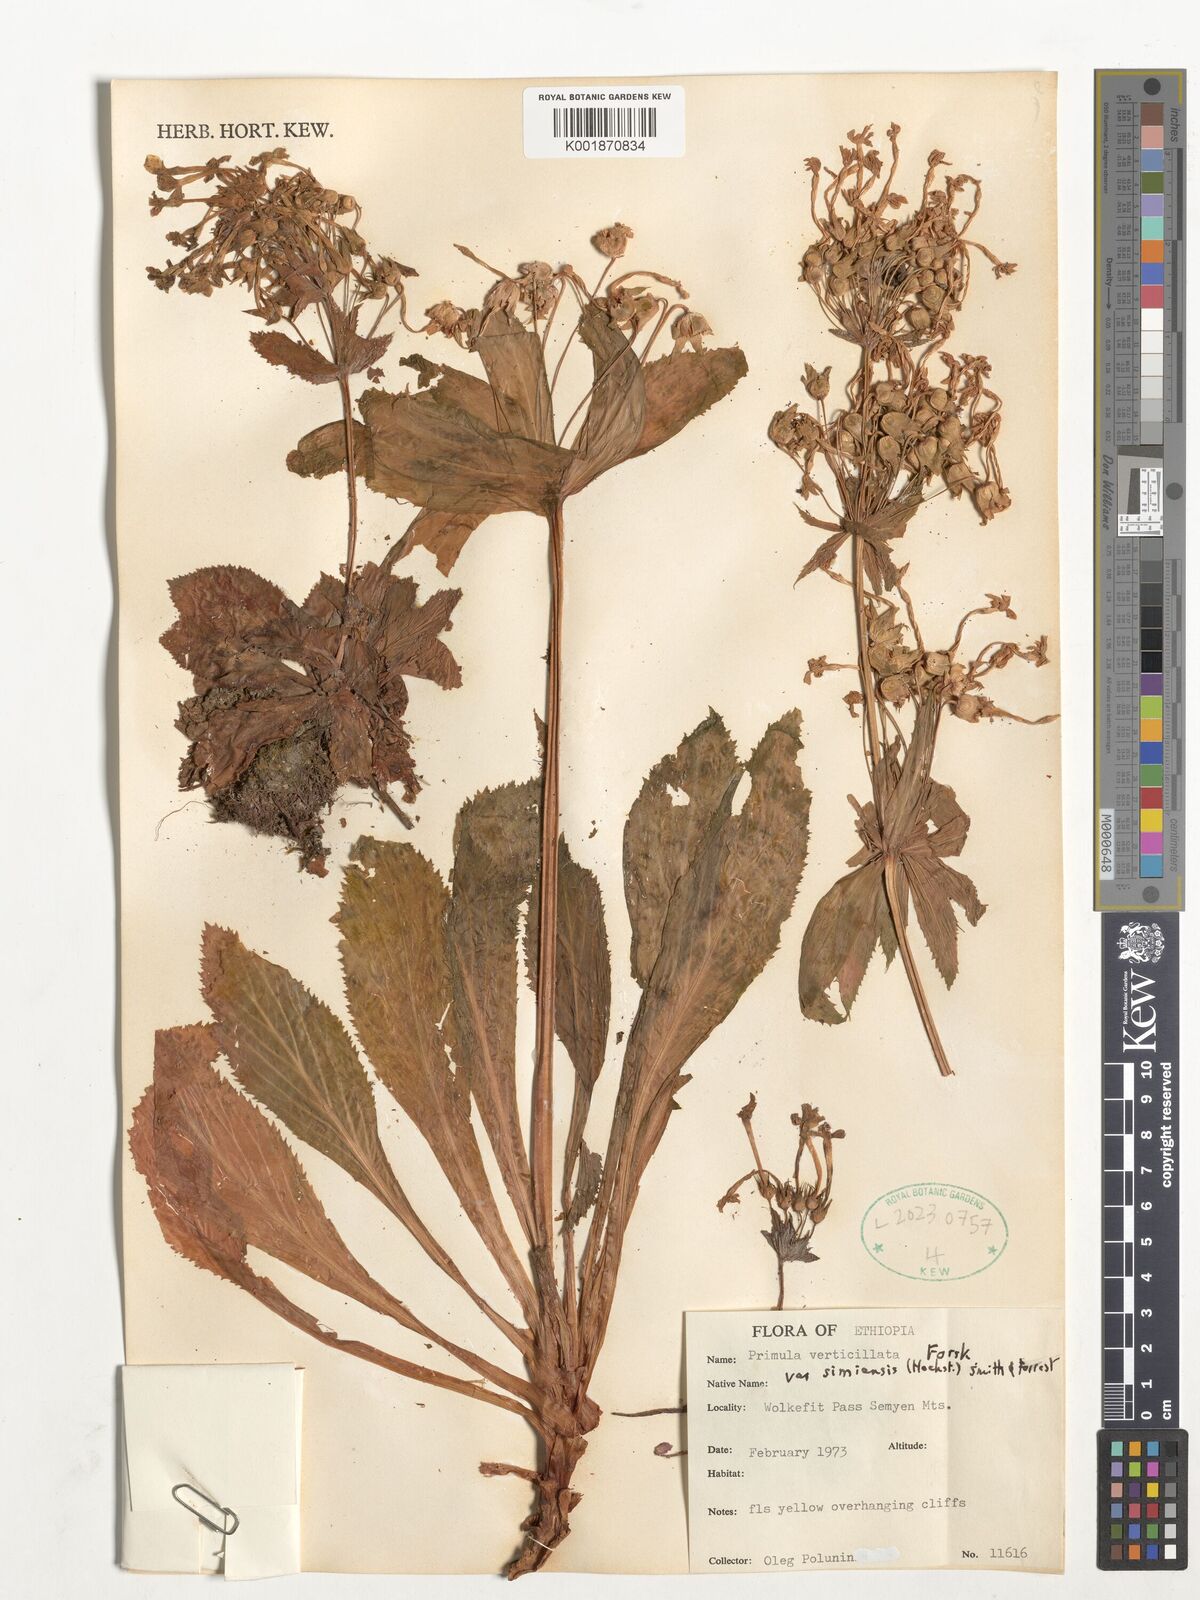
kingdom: Plantae
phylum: Tracheophyta
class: Magnoliopsida
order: Ericales
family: Primulaceae
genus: Evotrochis
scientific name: Evotrochis simensis
